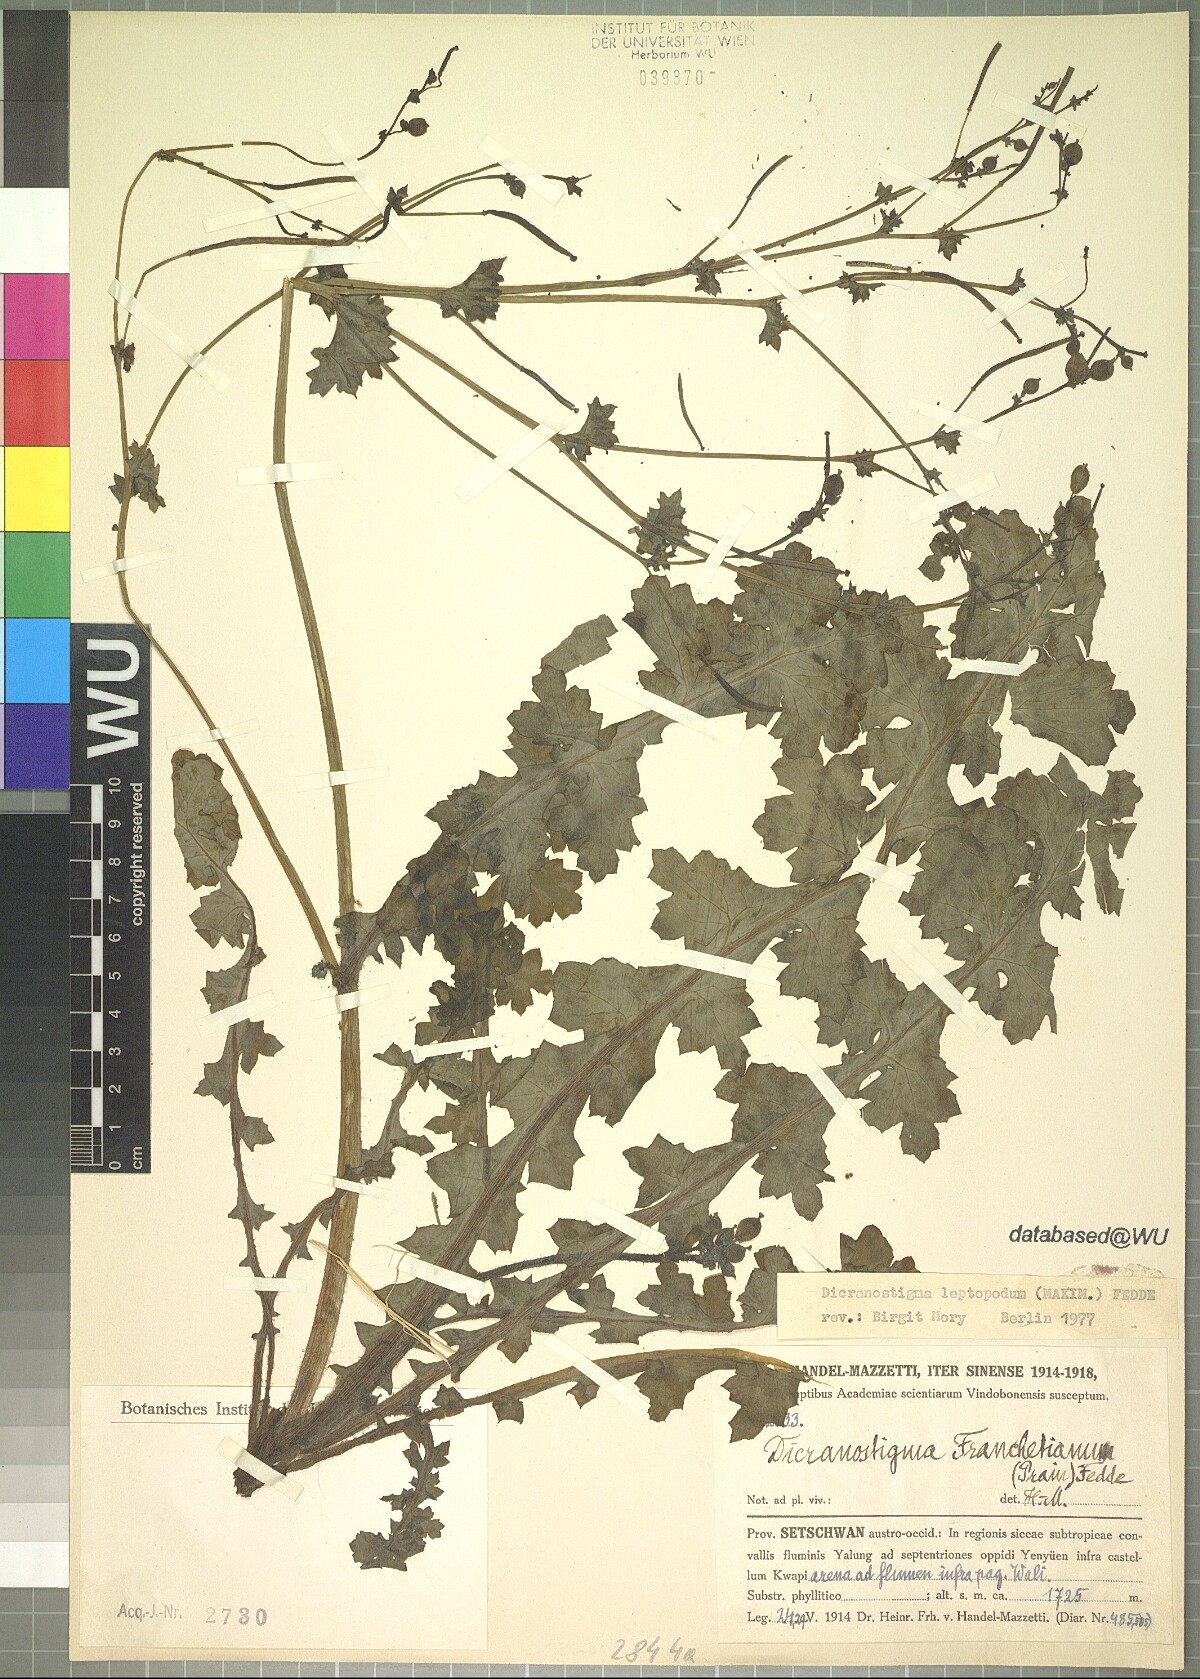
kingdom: Plantae
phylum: Tracheophyta
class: Magnoliopsida
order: Ranunculales
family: Papaveraceae
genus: Dicranostigma
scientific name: Dicranostigma leptopodum
